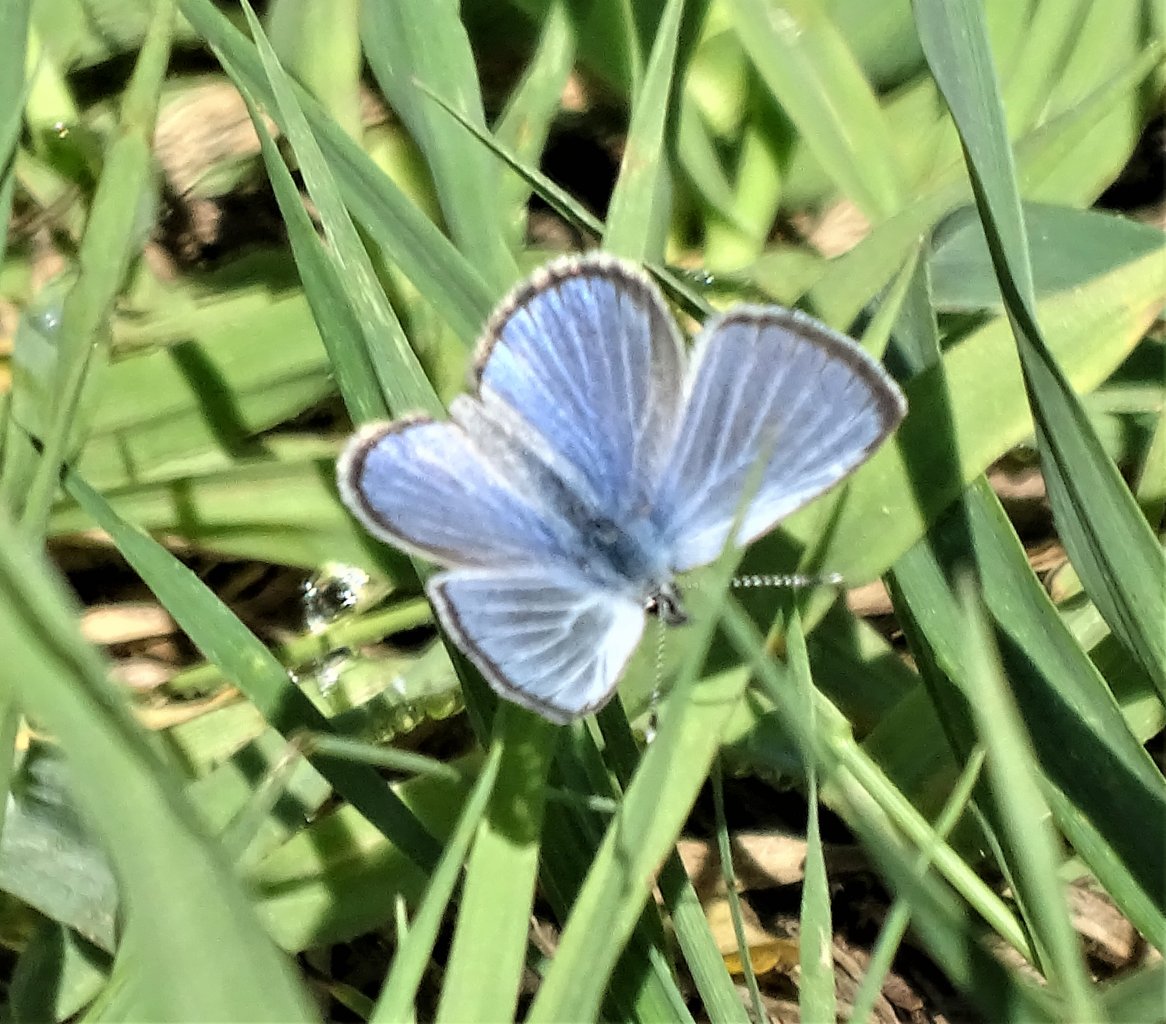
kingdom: Animalia
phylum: Arthropoda
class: Insecta
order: Lepidoptera
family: Lycaenidae
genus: Glaucopsyche
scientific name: Glaucopsyche lygdamus
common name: Silvery Blue
